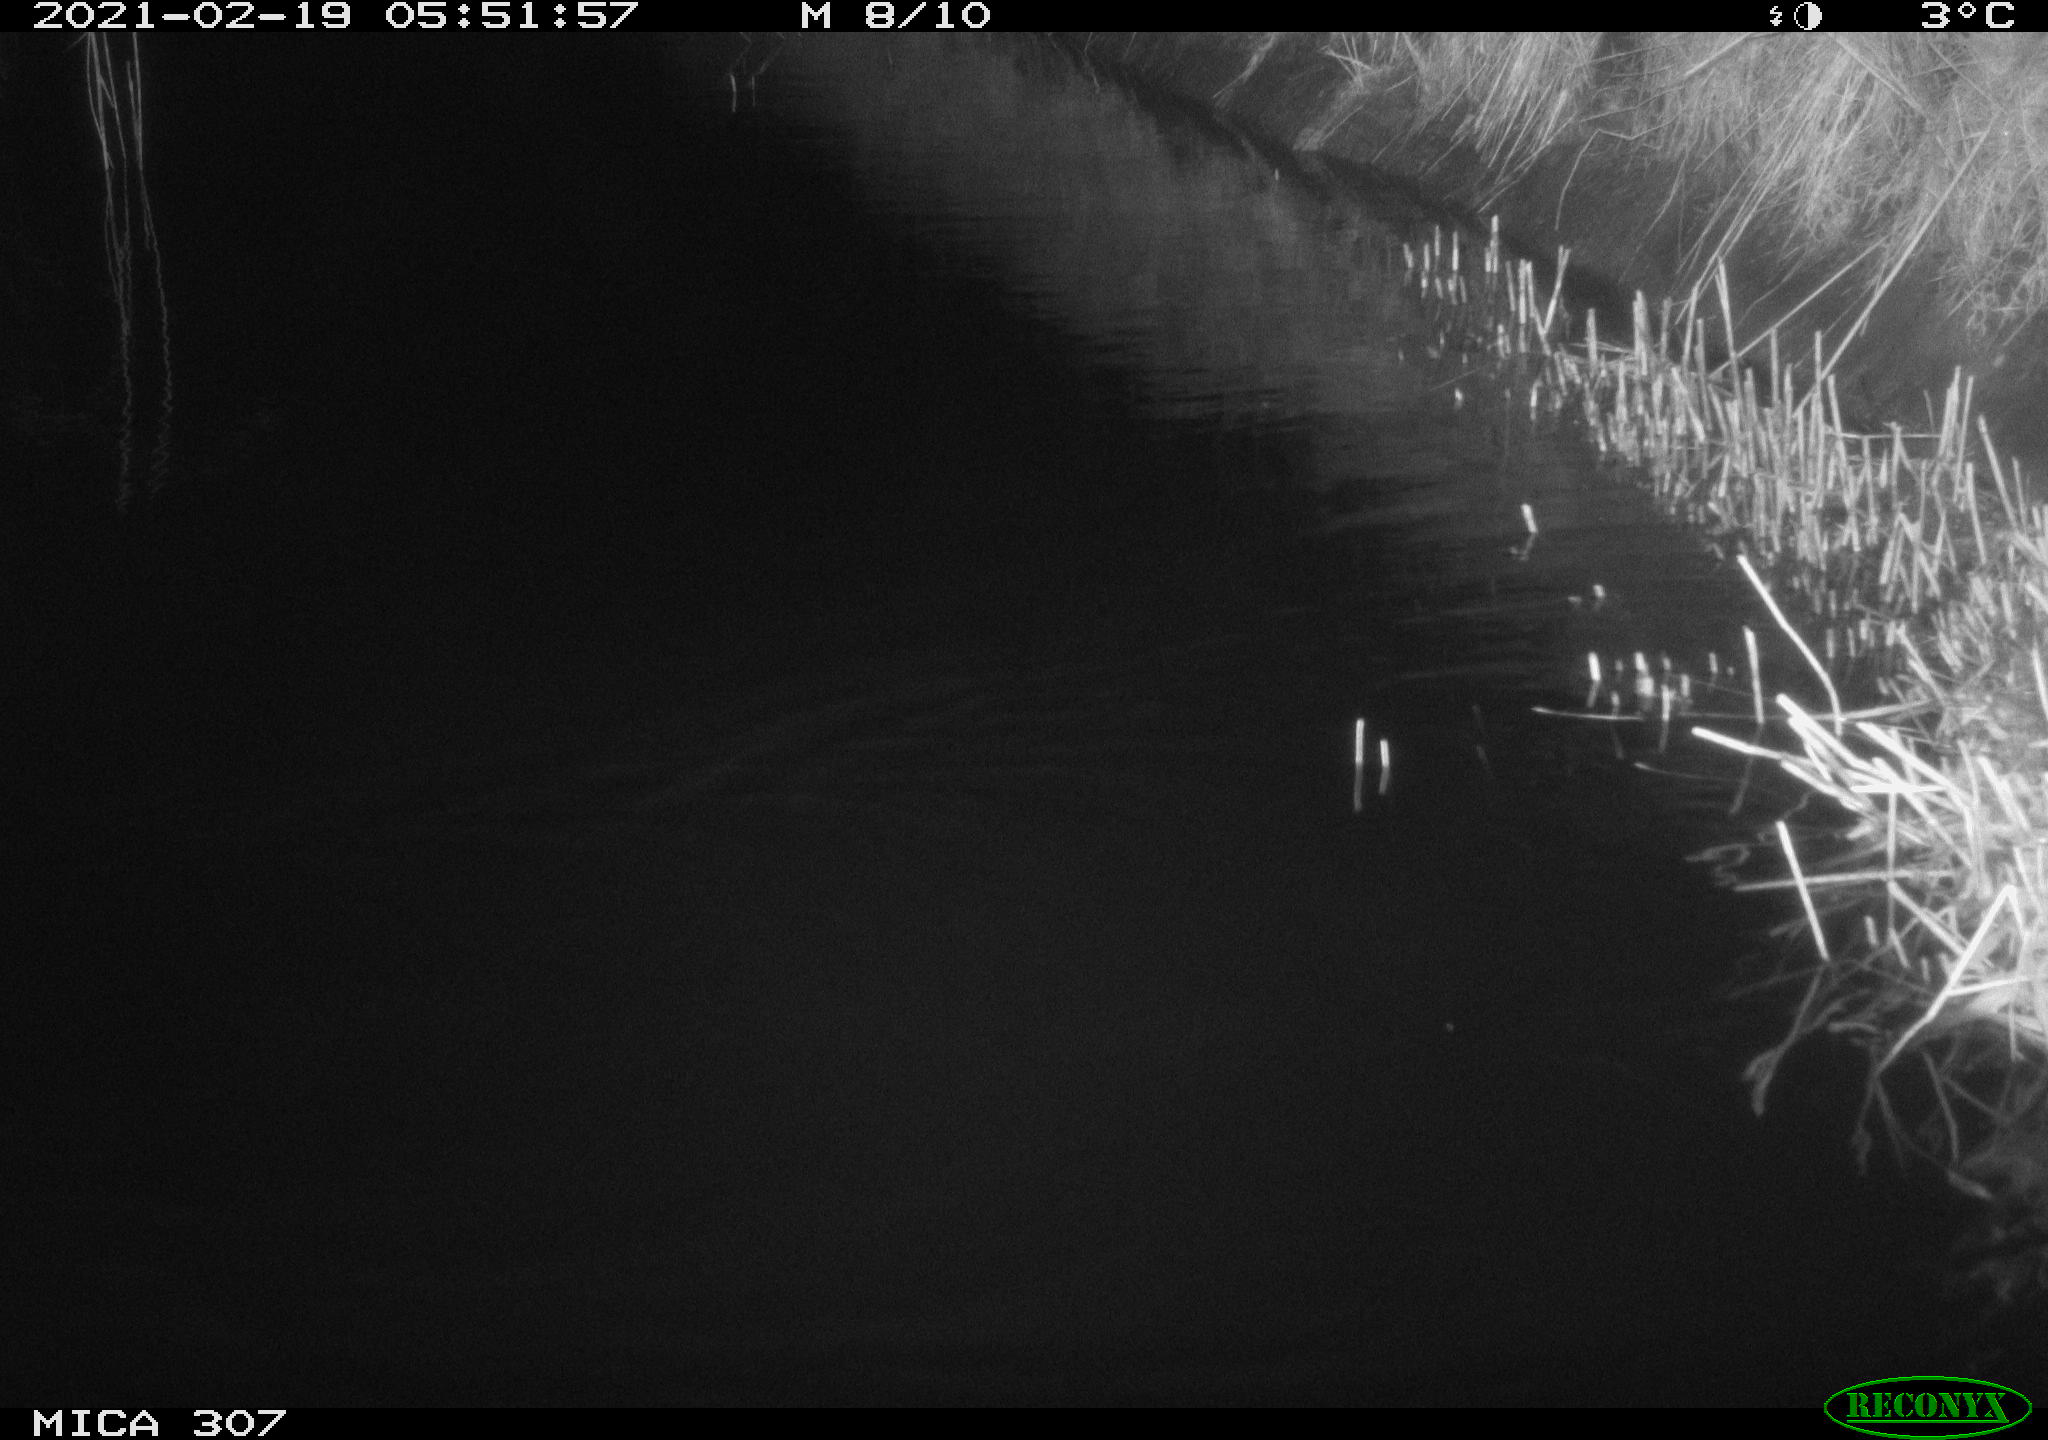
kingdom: Animalia
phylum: Chordata
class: Mammalia
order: Rodentia
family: Muridae
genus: Rattus
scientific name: Rattus norvegicus
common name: Brown rat
